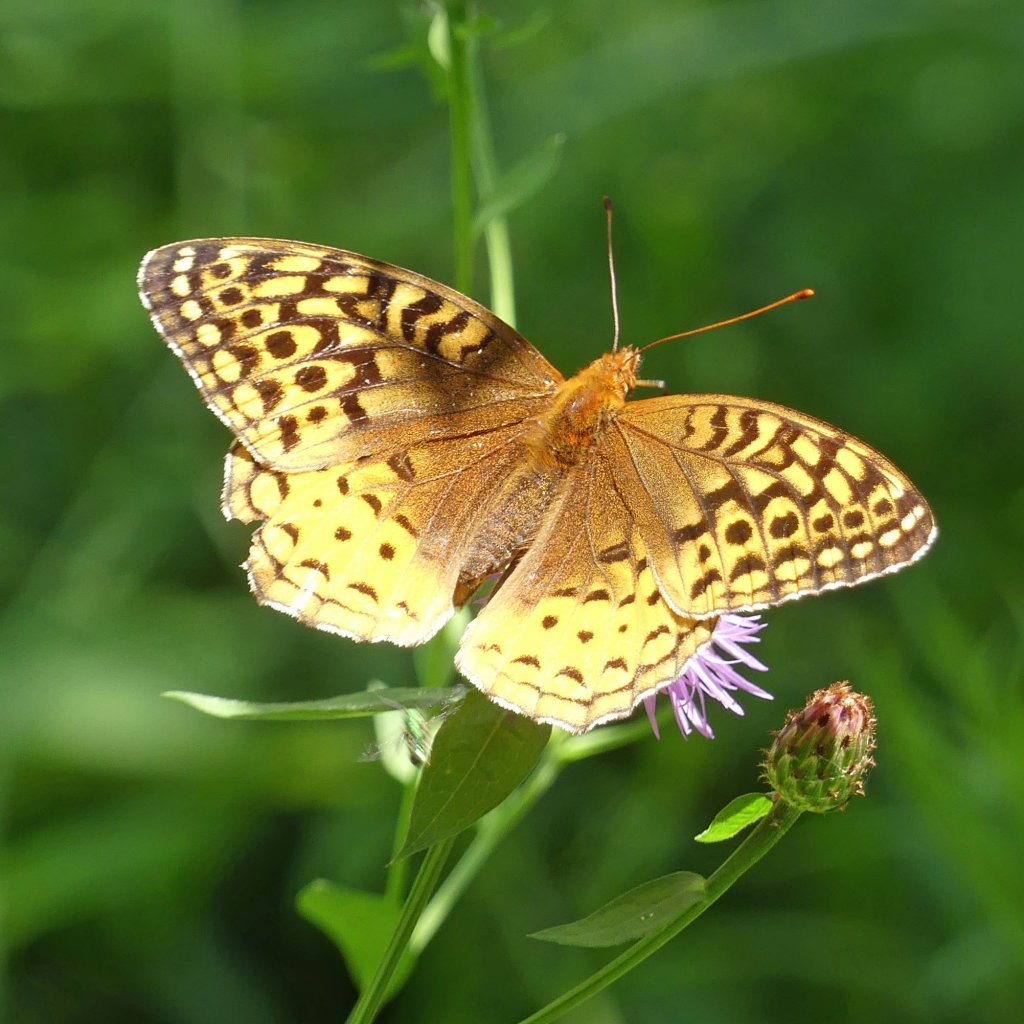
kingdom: Animalia
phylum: Arthropoda
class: Insecta
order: Lepidoptera
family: Nymphalidae
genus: Speyeria
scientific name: Speyeria cybele
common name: Great Spangled Fritillary
